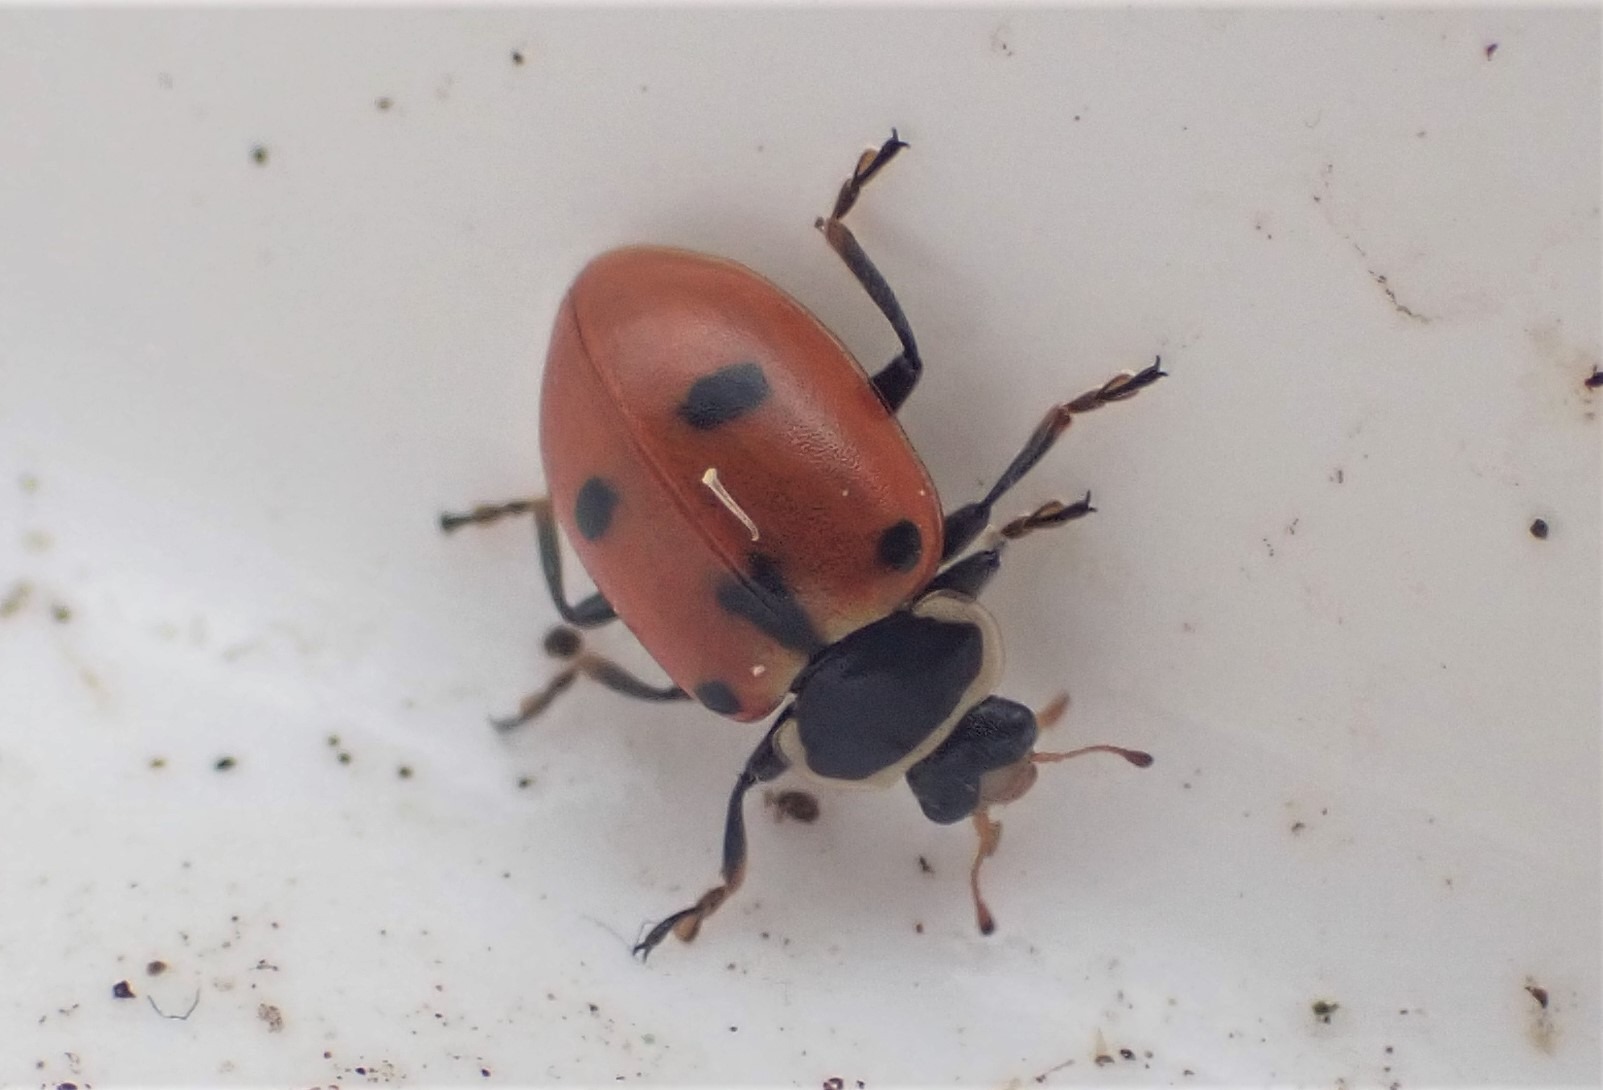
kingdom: Animalia
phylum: Arthropoda
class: Insecta
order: Coleoptera
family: Coccinellidae
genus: Hippodamia
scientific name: Hippodamia septemmaculata
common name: Syvprikket mariehøne
